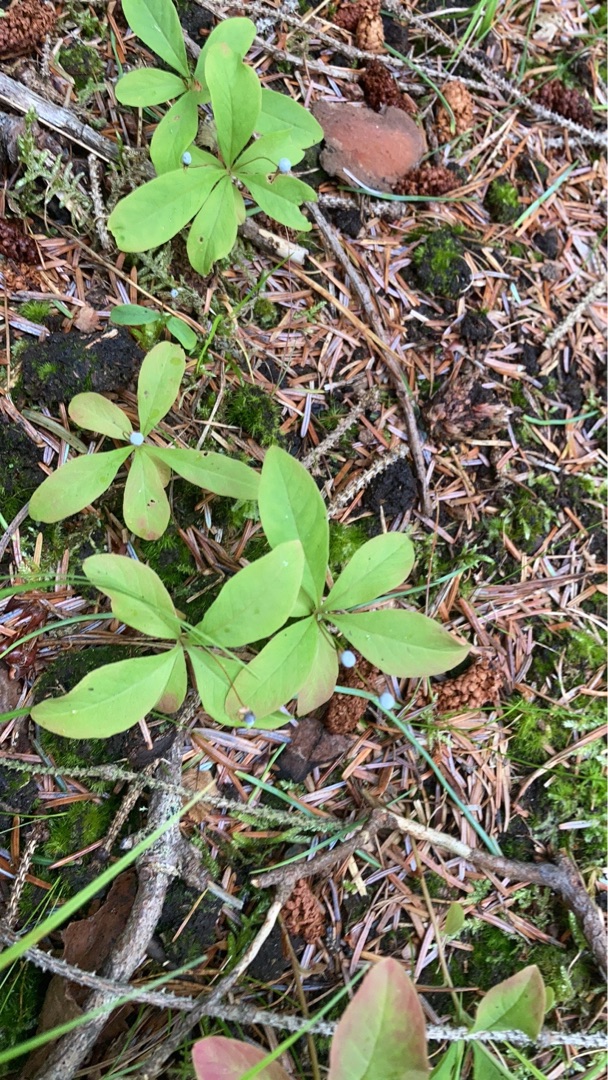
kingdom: Plantae
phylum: Tracheophyta
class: Magnoliopsida
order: Ericales
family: Primulaceae
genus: Lysimachia
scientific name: Lysimachia europaea
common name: Skovstjerne
